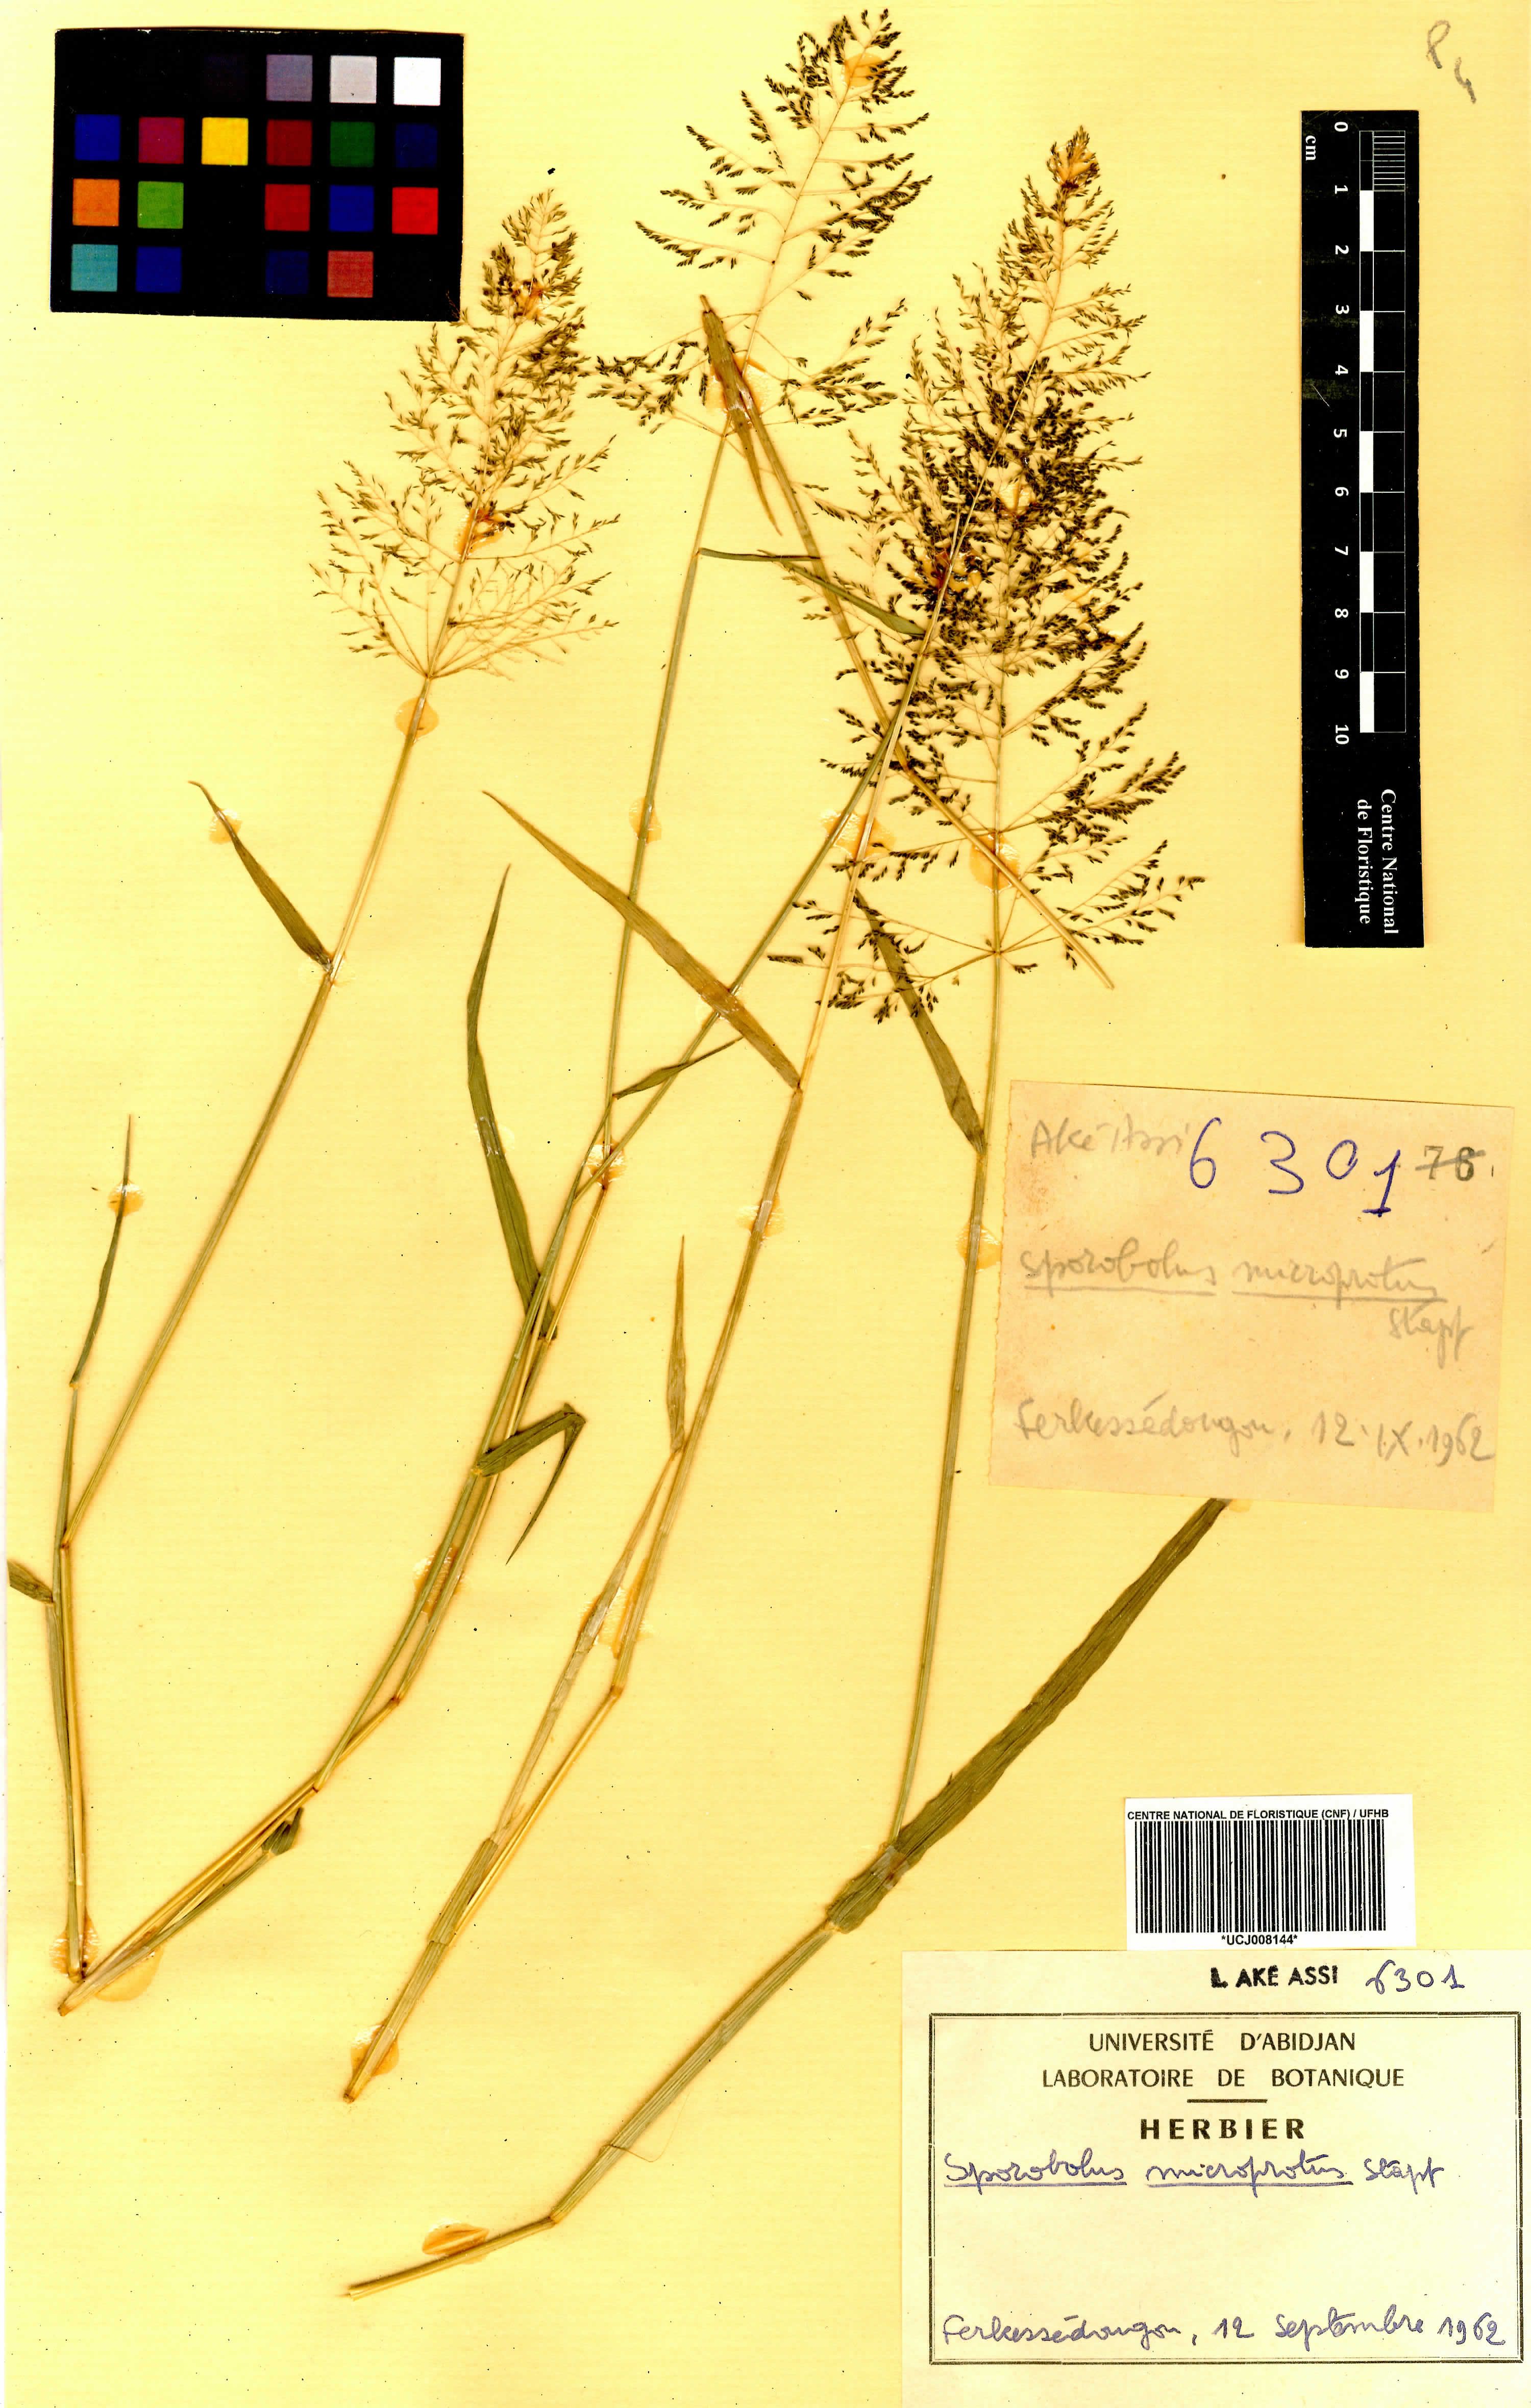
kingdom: Plantae
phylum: Tracheophyta
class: Liliopsida
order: Poales
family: Poaceae
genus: Sporobolus
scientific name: Sporobolus microprotus
